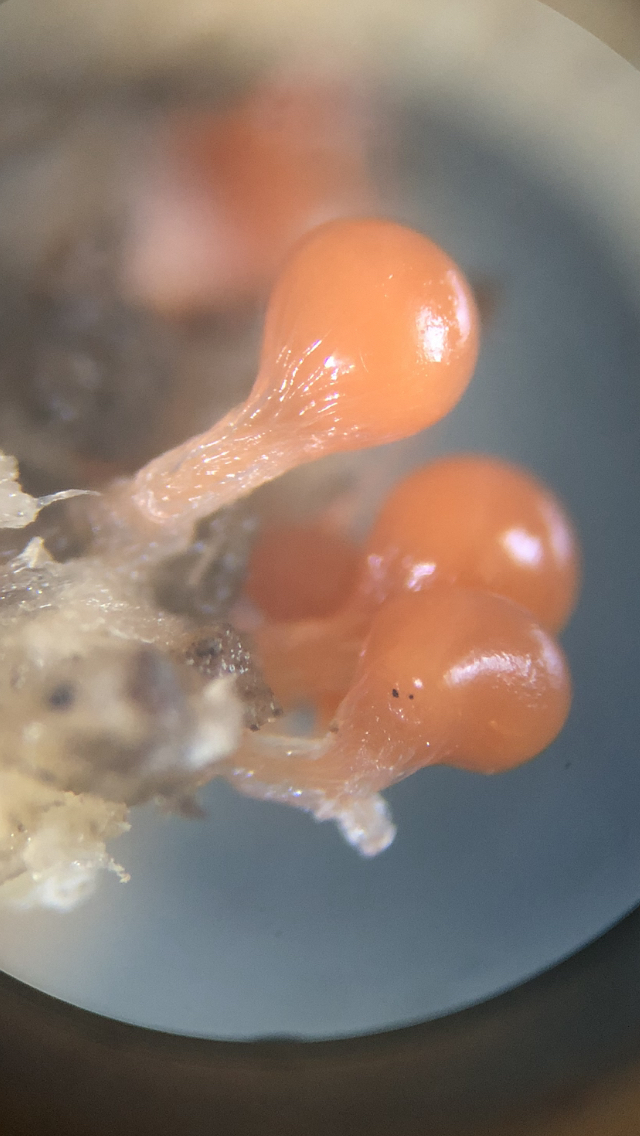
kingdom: Protozoa
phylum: Mycetozoa
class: Myxomycetes
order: Trichiales
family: Trichiaceae
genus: Trichia
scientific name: Trichia crateriformis
